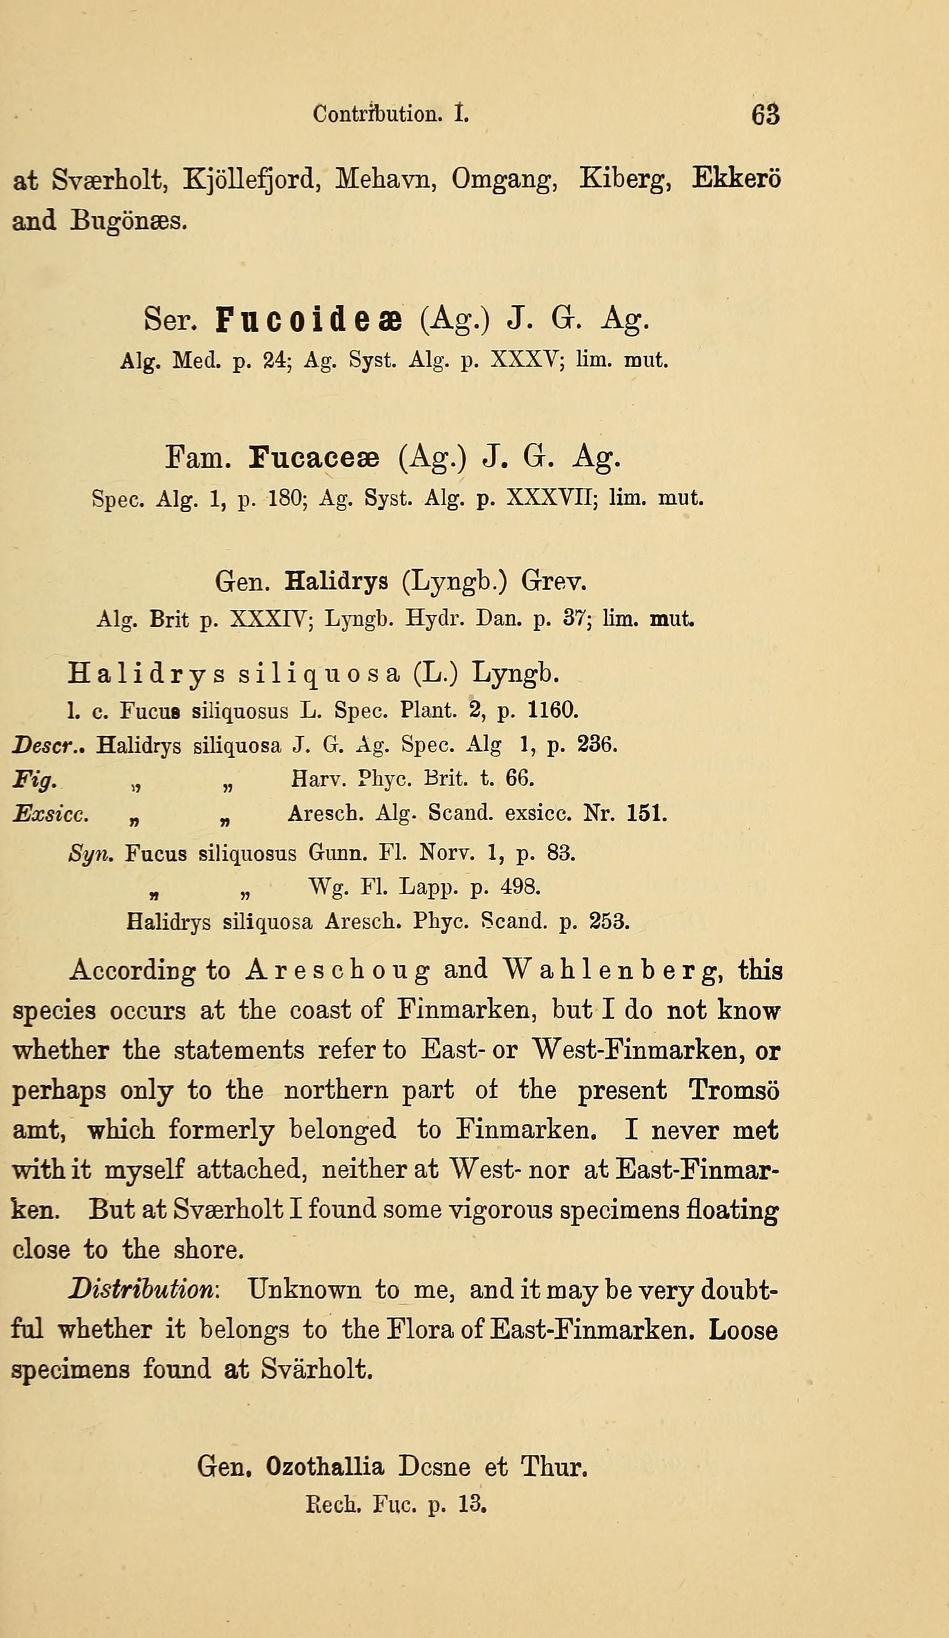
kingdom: Plantae
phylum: Rhodophyta
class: Bangiophyceae
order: Bangiales
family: Bangiaceae
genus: Bangia
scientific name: Bangia fuscopurpurea
